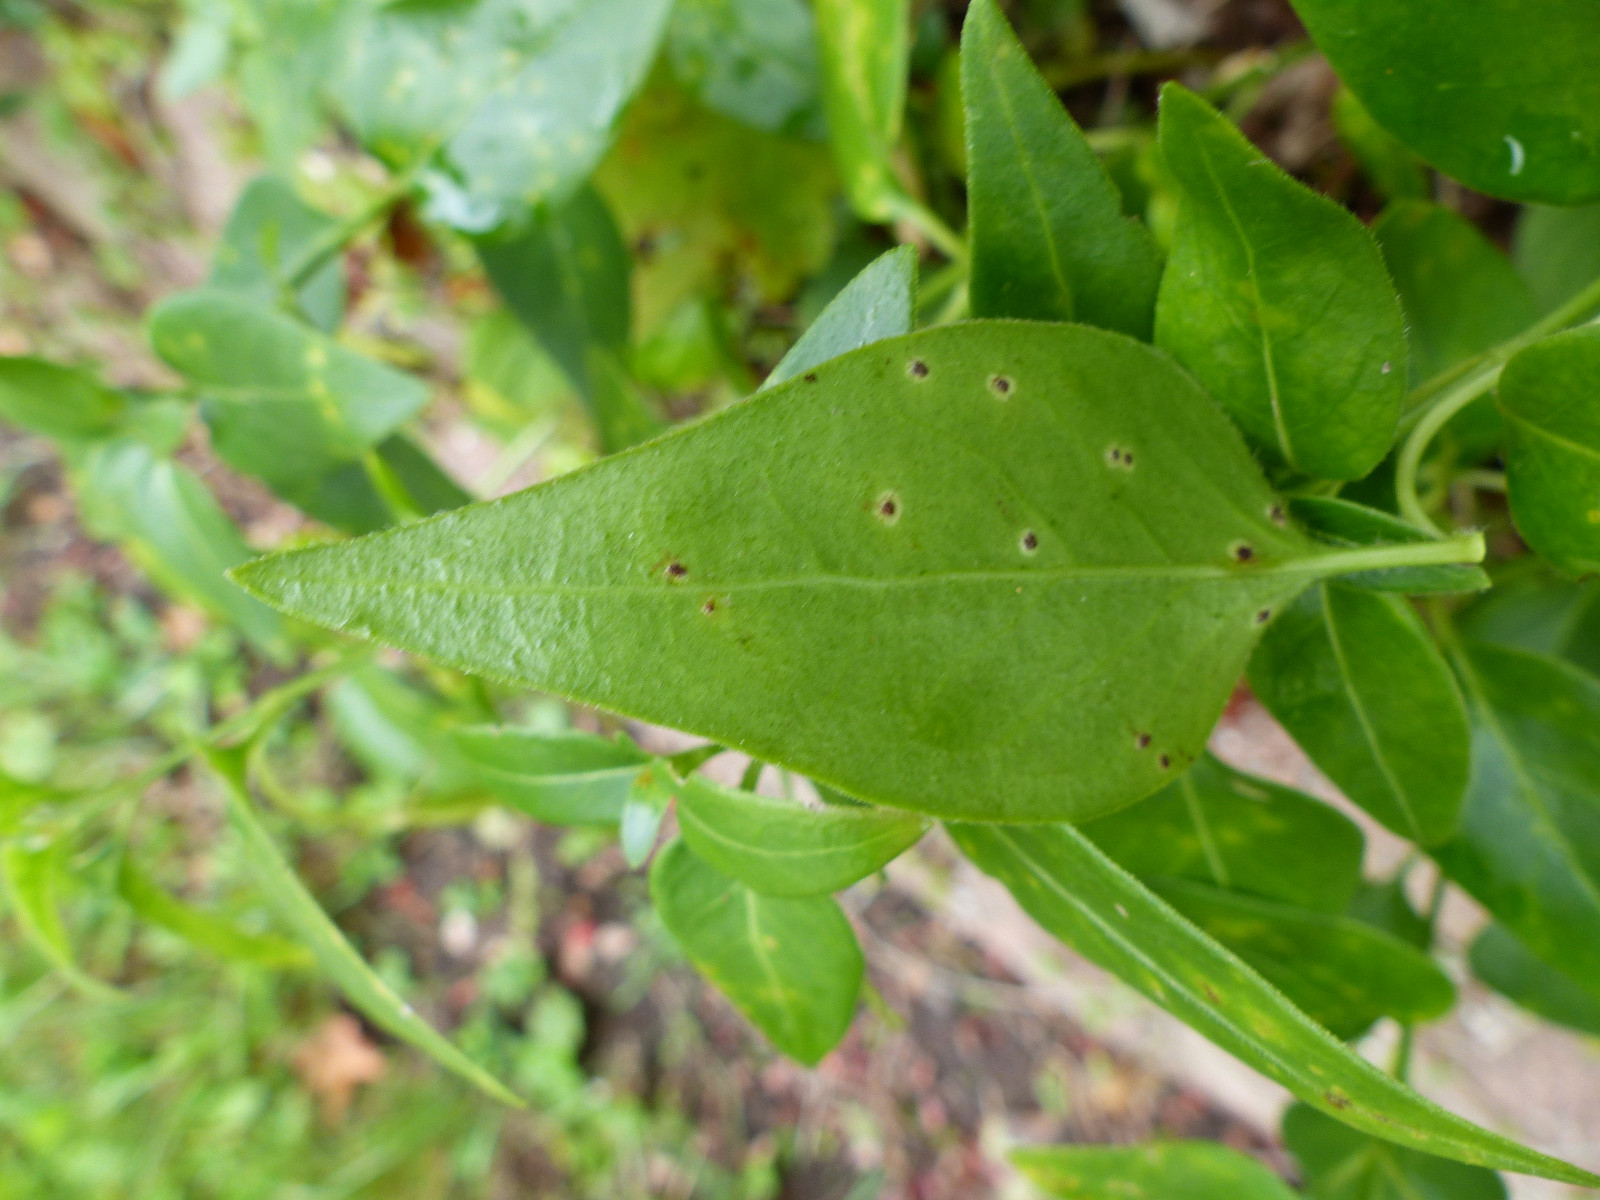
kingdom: Fungi
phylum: Basidiomycota
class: Pucciniomycetes
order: Pucciniales
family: Pucciniaceae
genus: Puccinia
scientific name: Puccinia vincae
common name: Periwinkle rust
